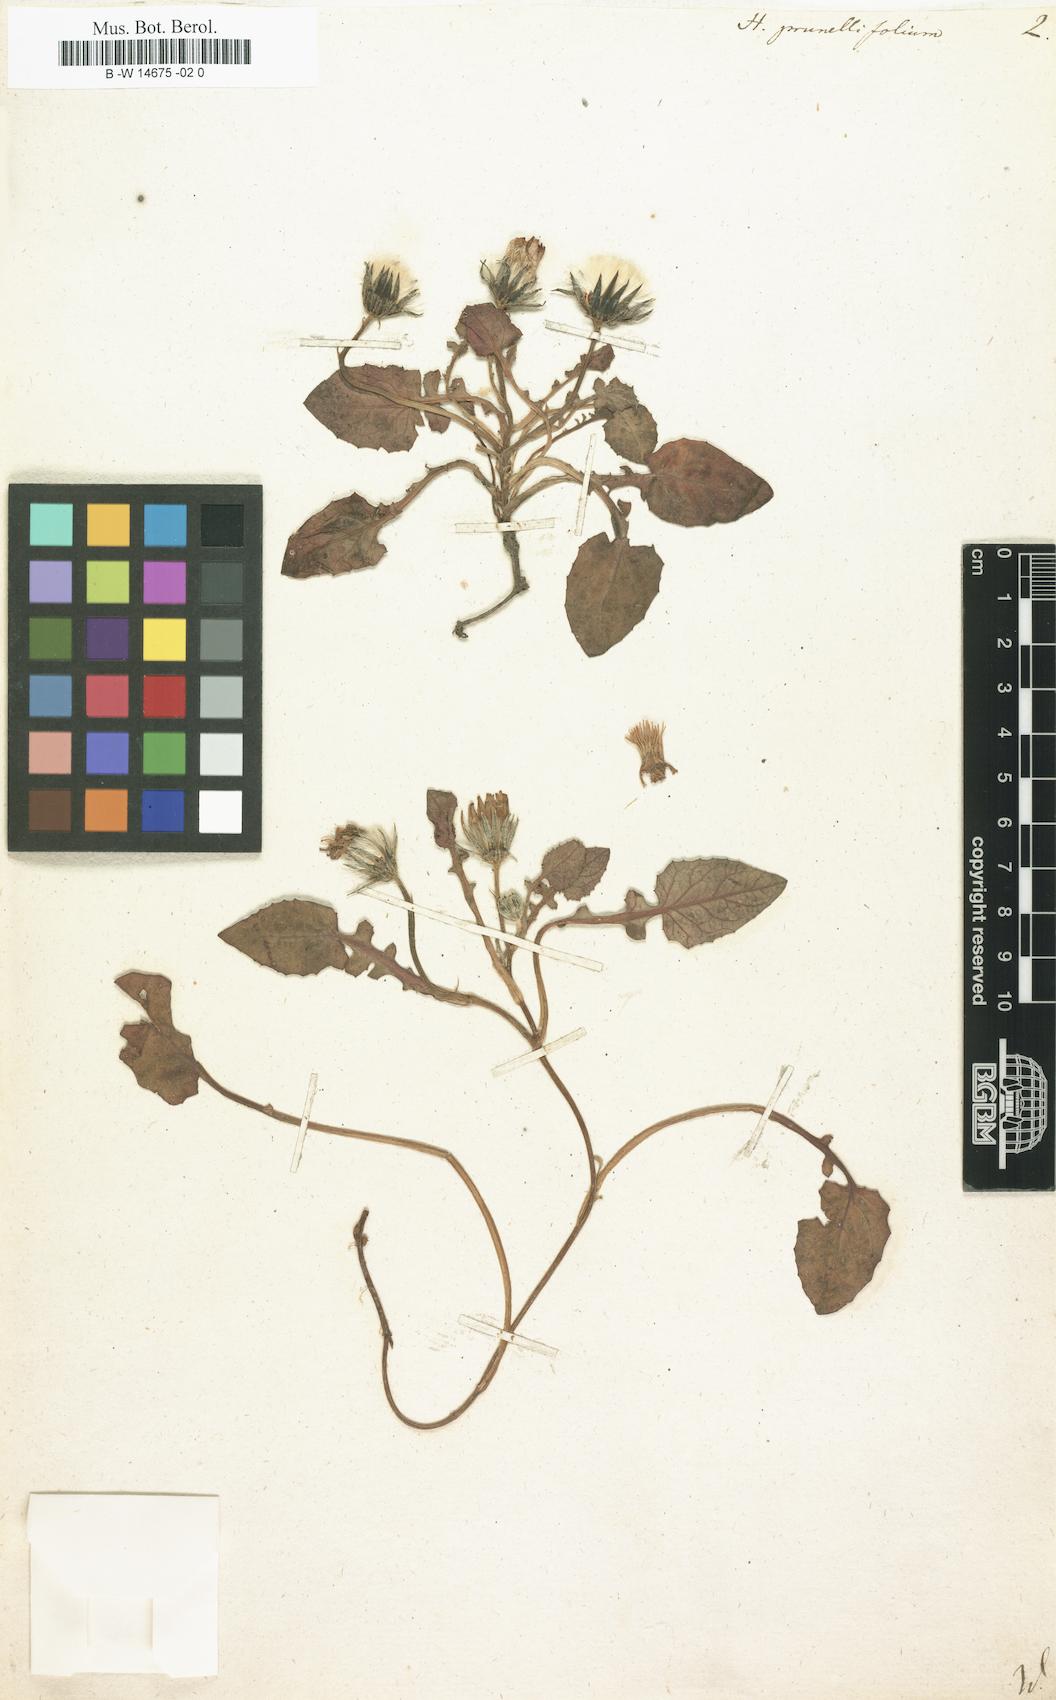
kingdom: Plantae
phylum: Tracheophyta
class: Magnoliopsida
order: Asterales
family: Asteraceae
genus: Crepis
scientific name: Crepis pygmaea
